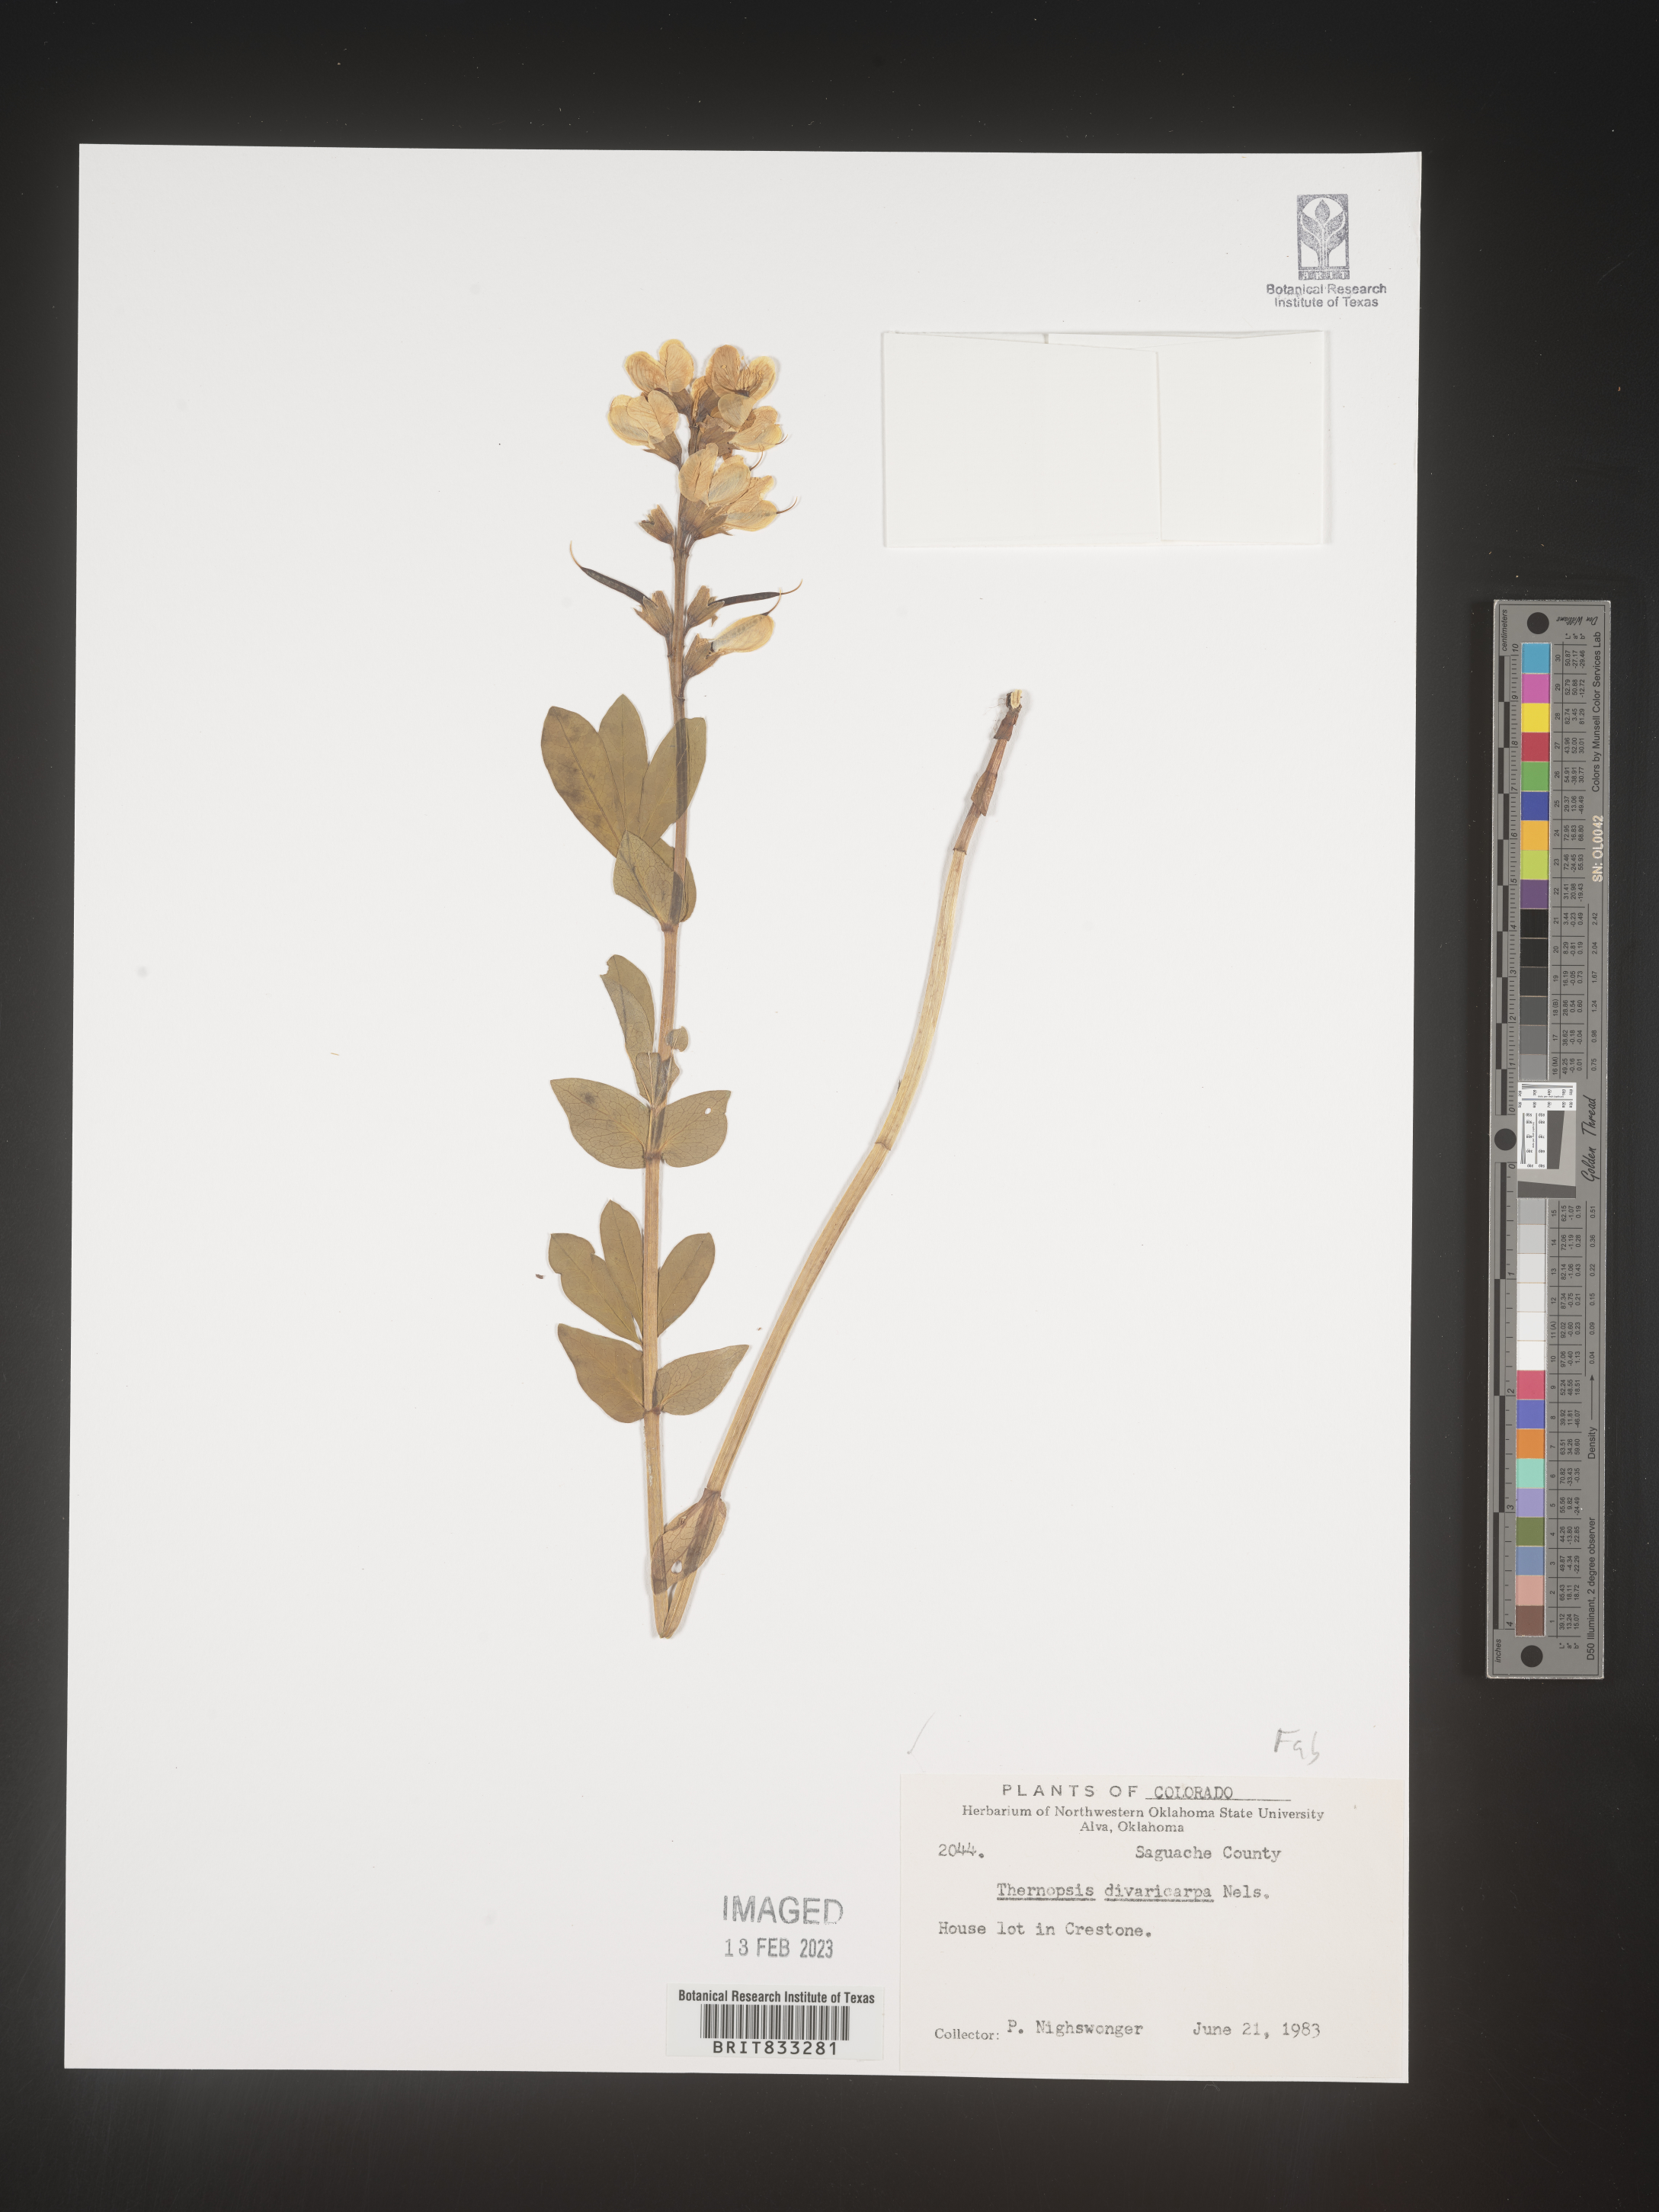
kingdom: Plantae
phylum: Tracheophyta
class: Magnoliopsida
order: Fabales
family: Fabaceae
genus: Thermopsis
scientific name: Thermopsis rhombifolia
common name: Circle-pod-pea
